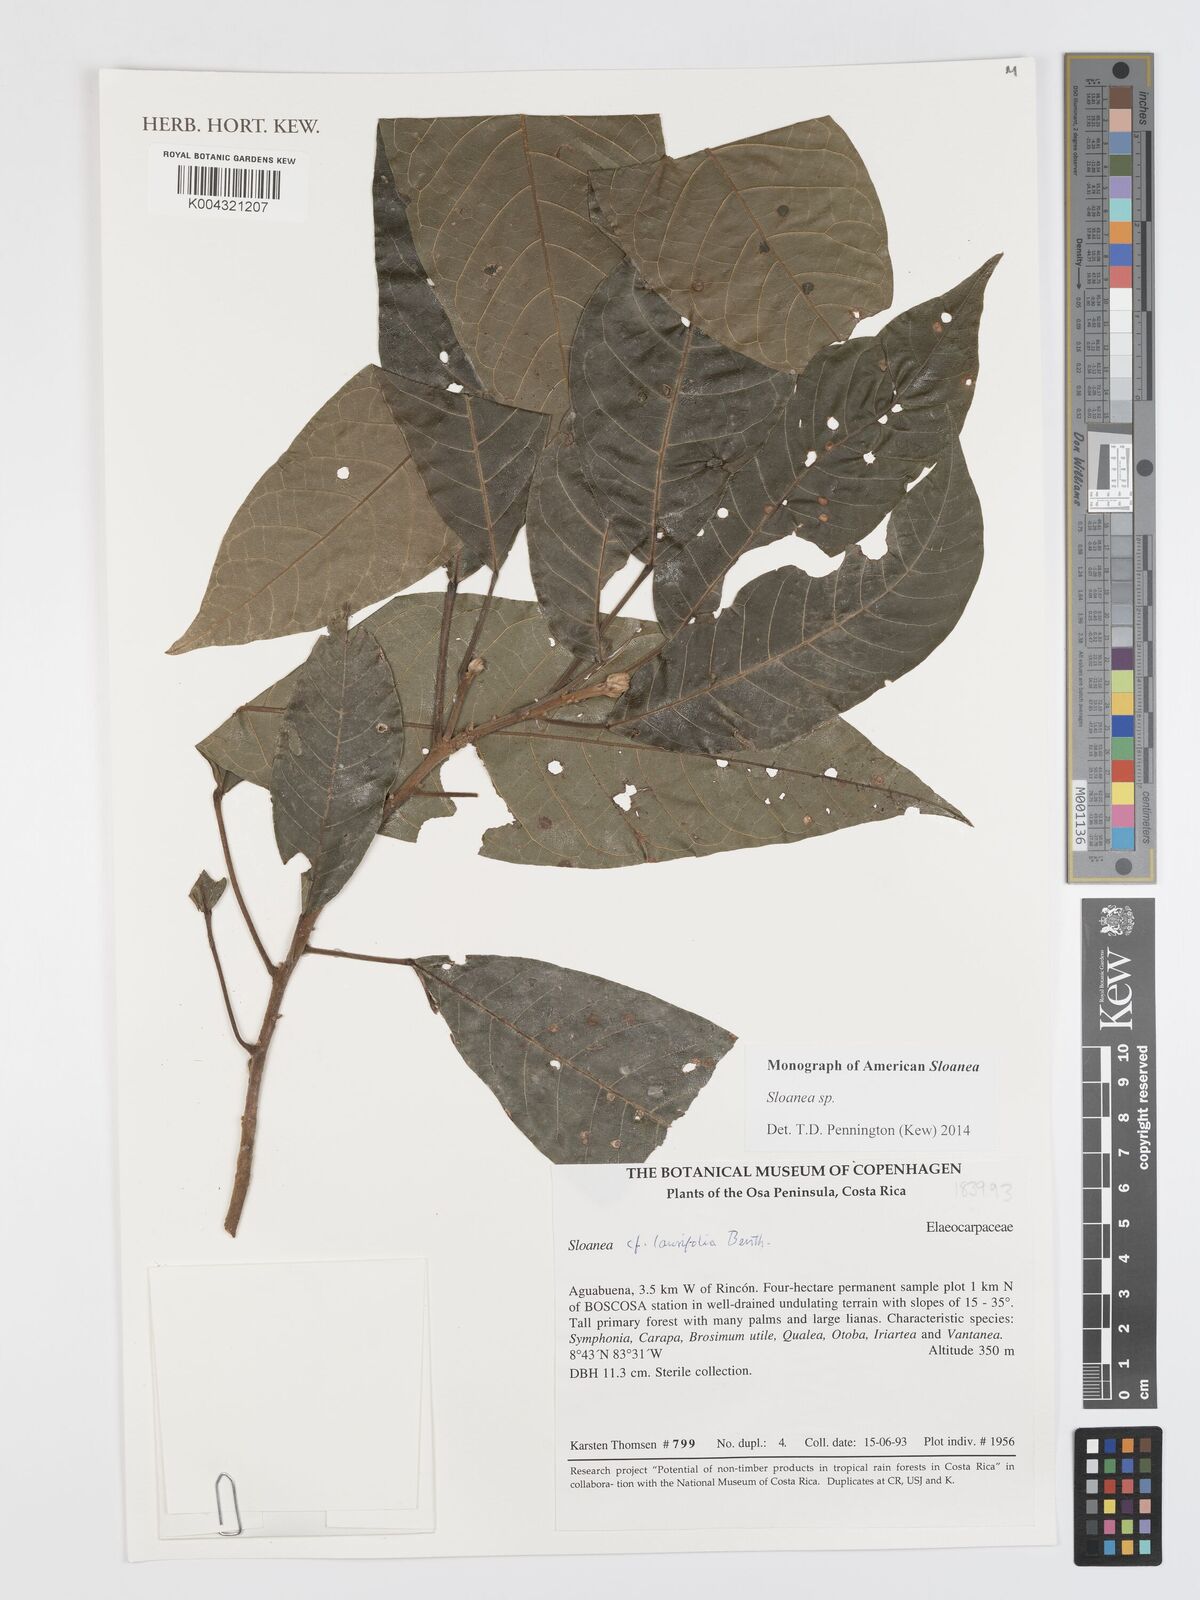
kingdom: Plantae
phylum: Tracheophyta
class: Magnoliopsida
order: Oxalidales
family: Elaeocarpaceae
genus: Sloanea
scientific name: Sloanea
